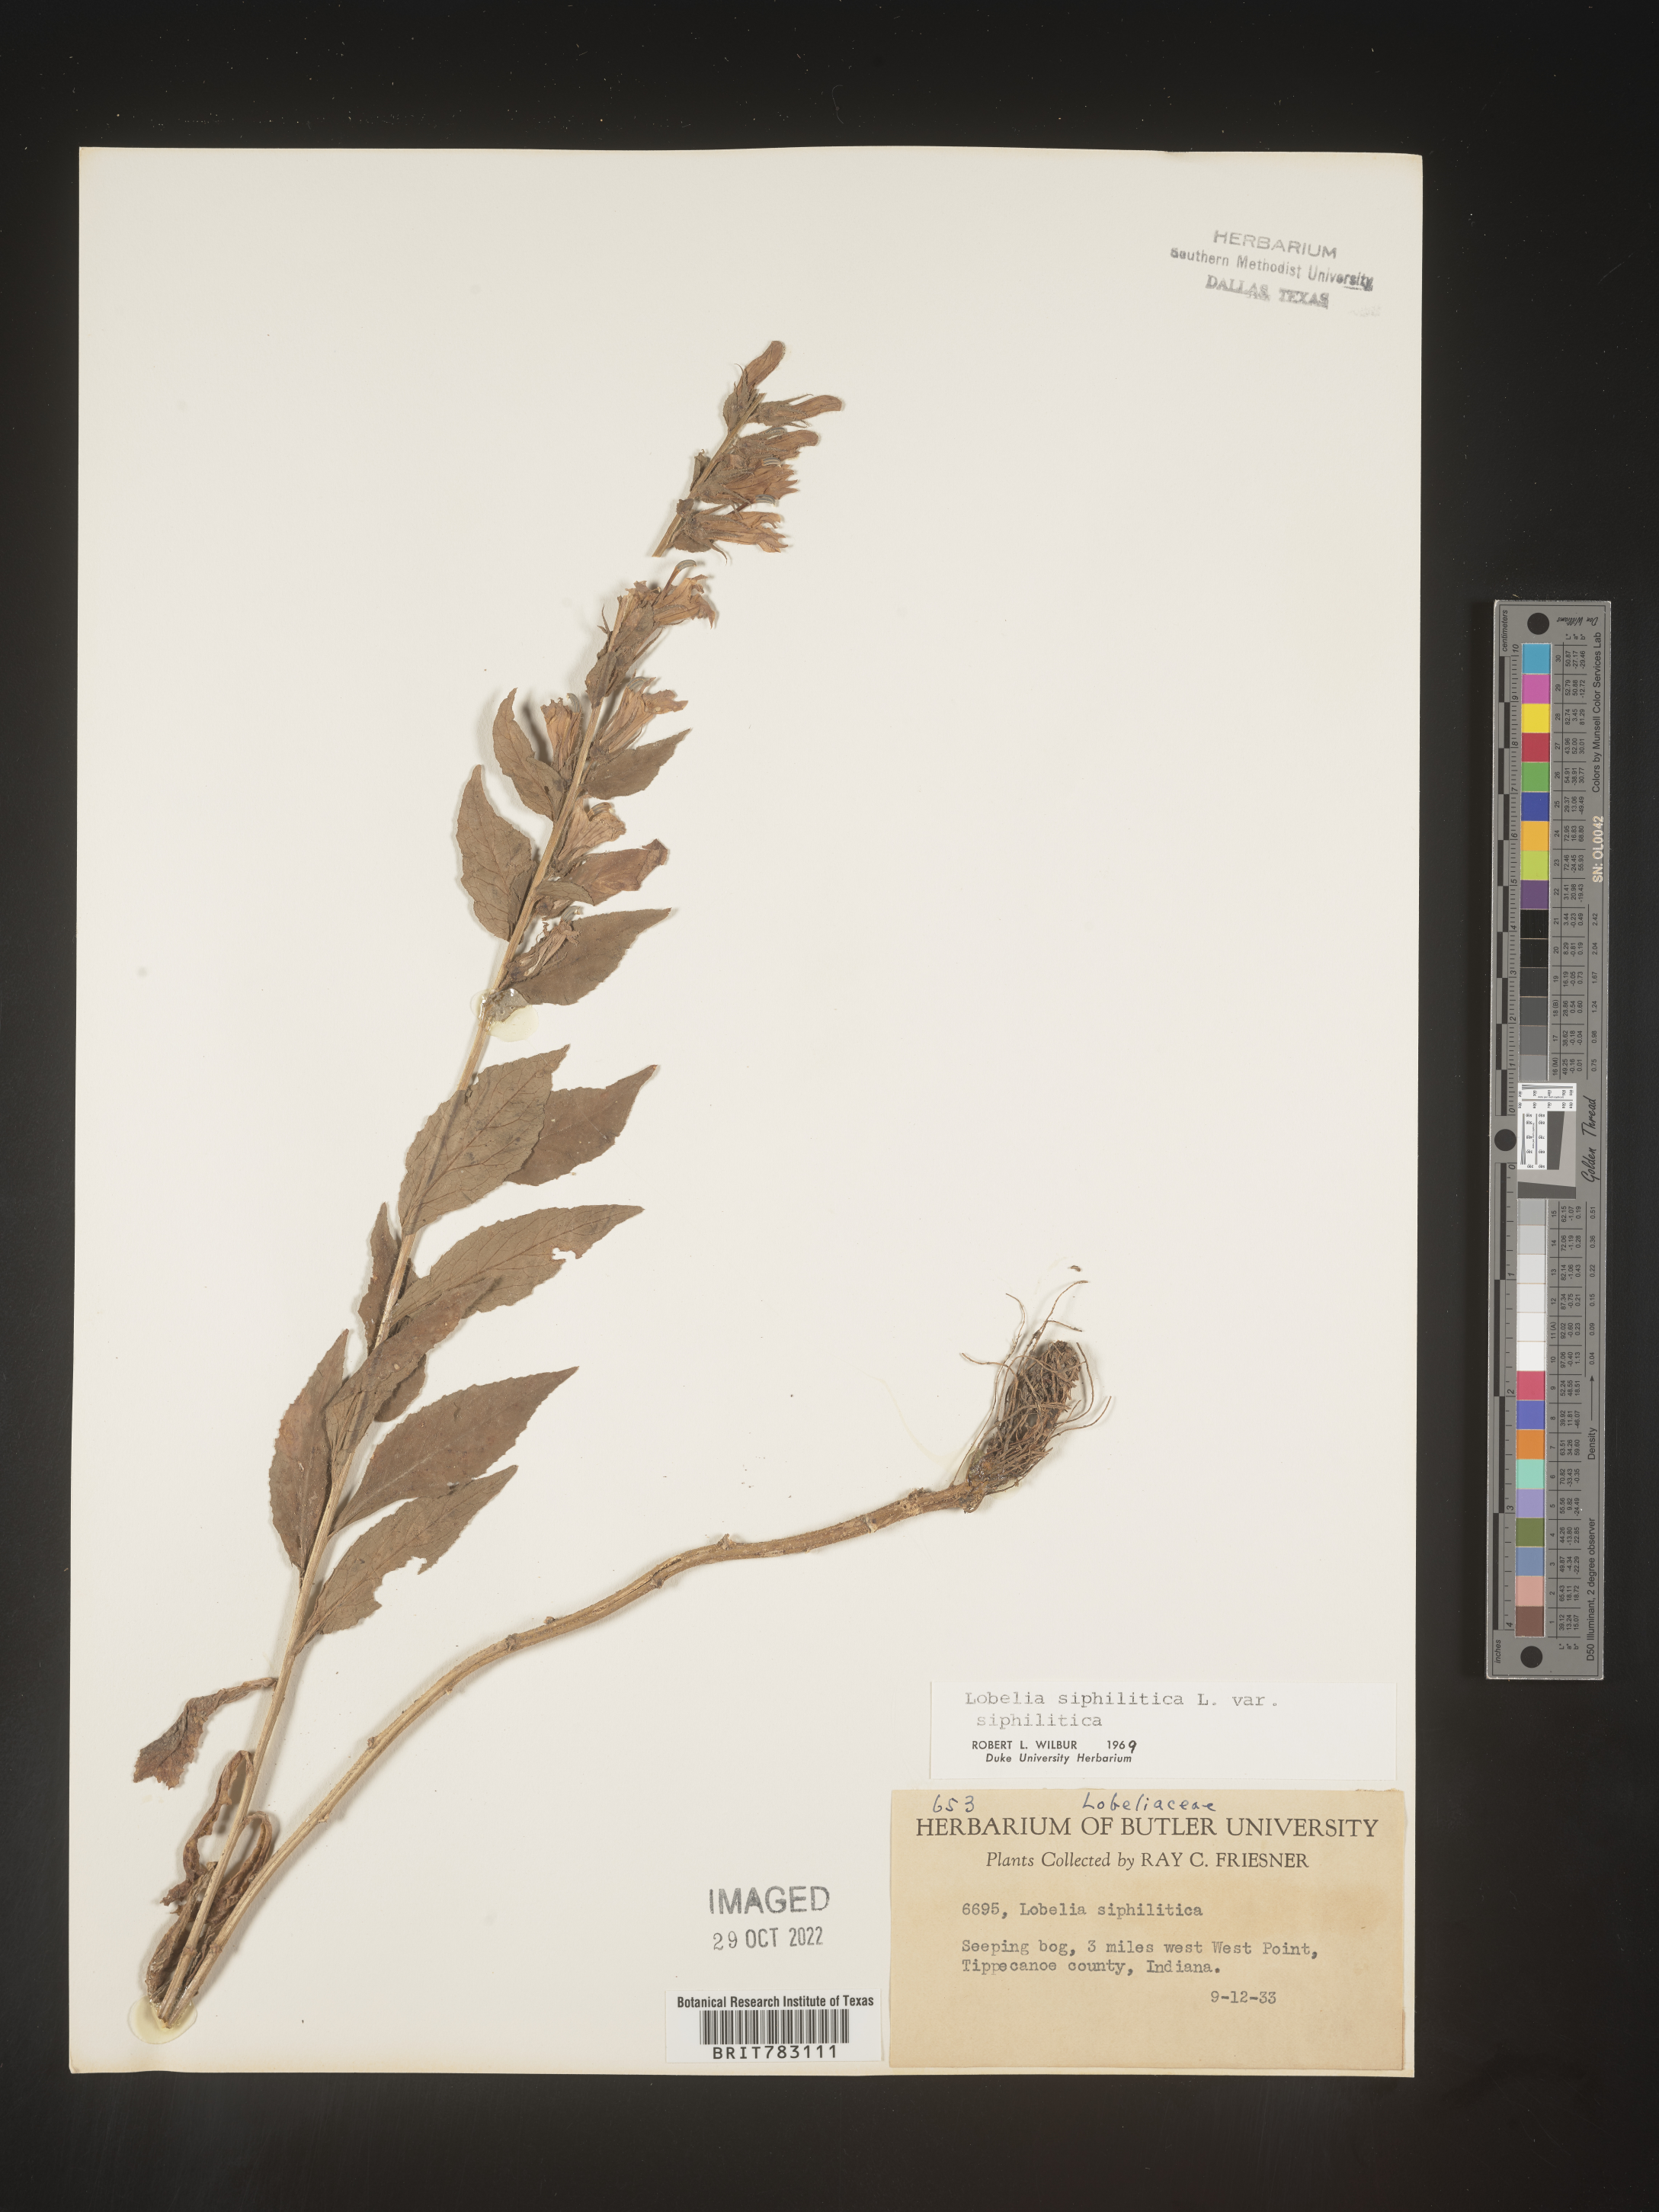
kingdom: Plantae
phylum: Tracheophyta
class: Magnoliopsida
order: Asterales
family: Campanulaceae
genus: Lobelia
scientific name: Lobelia siphilitica
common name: Great lobelia
